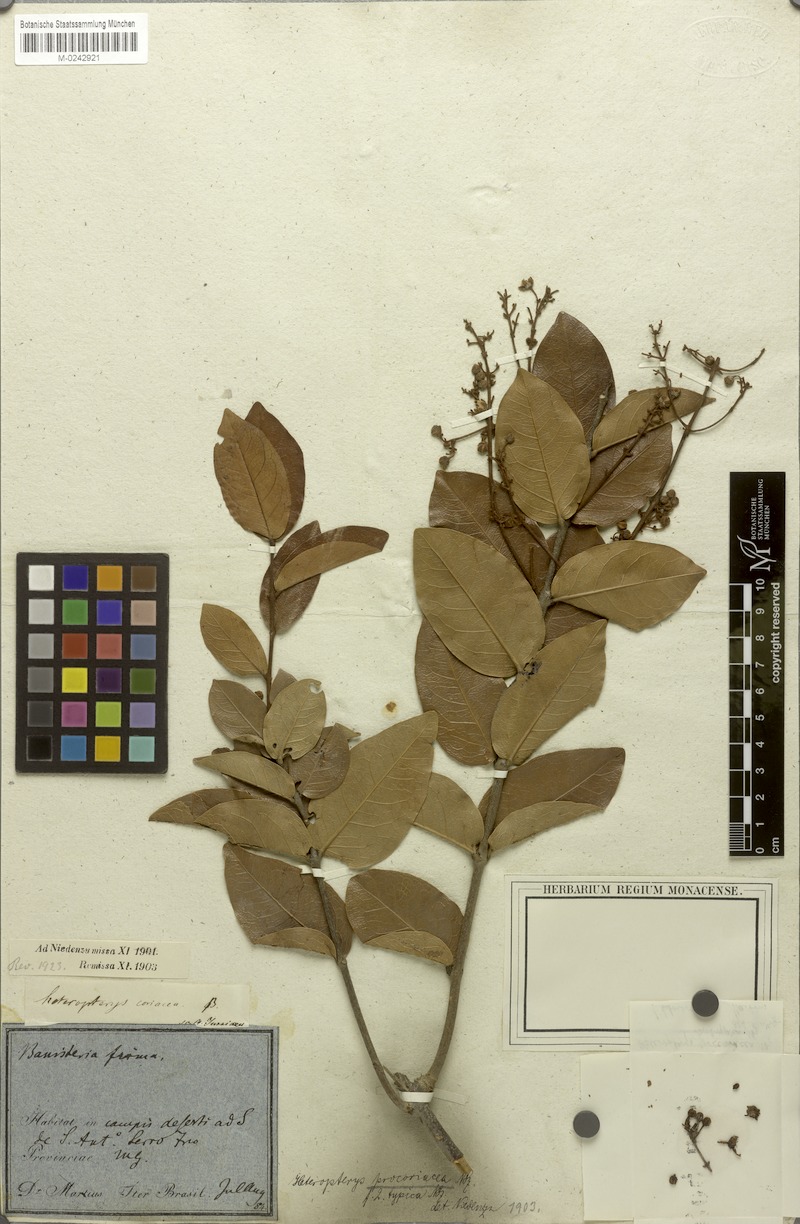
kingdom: Plantae
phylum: Tracheophyta
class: Magnoliopsida
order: Malpighiales
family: Malpighiaceae
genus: Heteropterys
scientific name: Heteropterys coriacea
